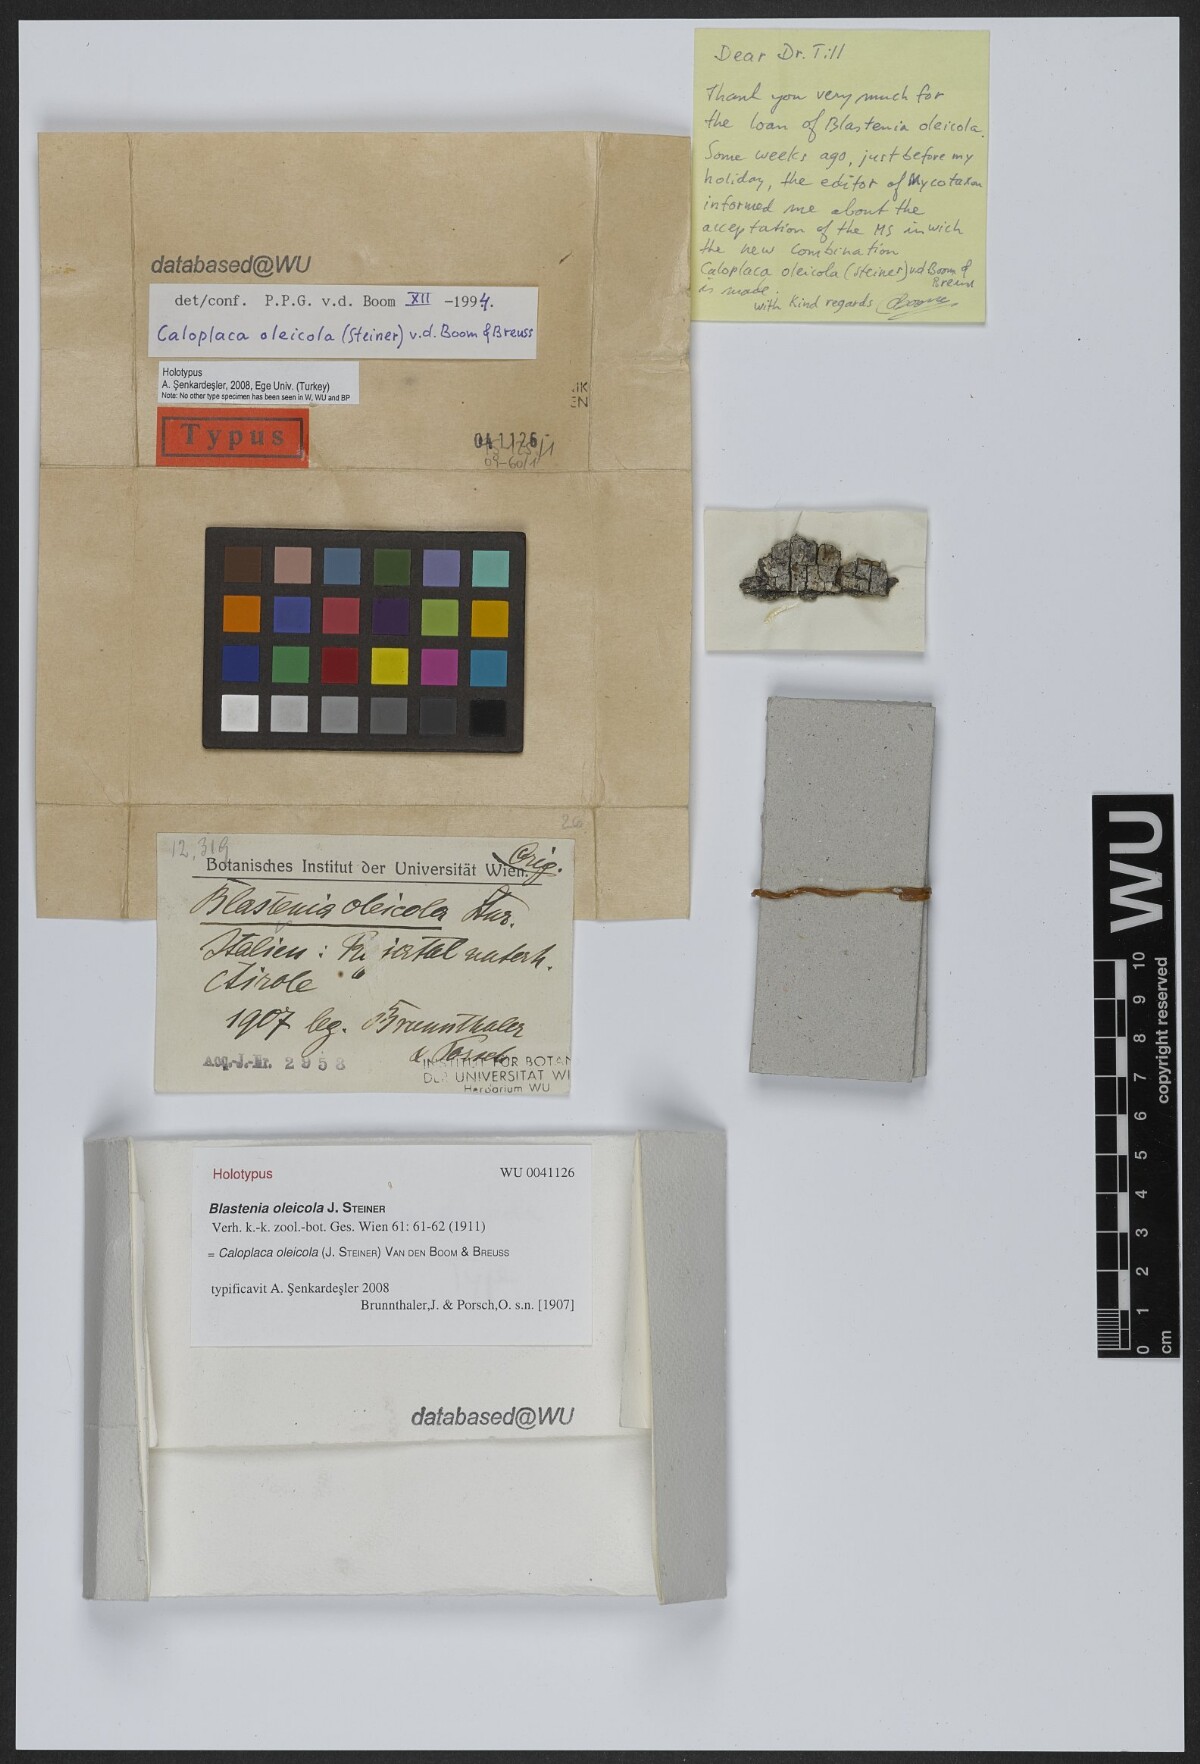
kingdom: Fungi
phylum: Ascomycota
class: Lecanoromycetes
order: Teloschistales
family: Teloschistaceae
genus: Caloplaca
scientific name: Caloplaca oleicola
